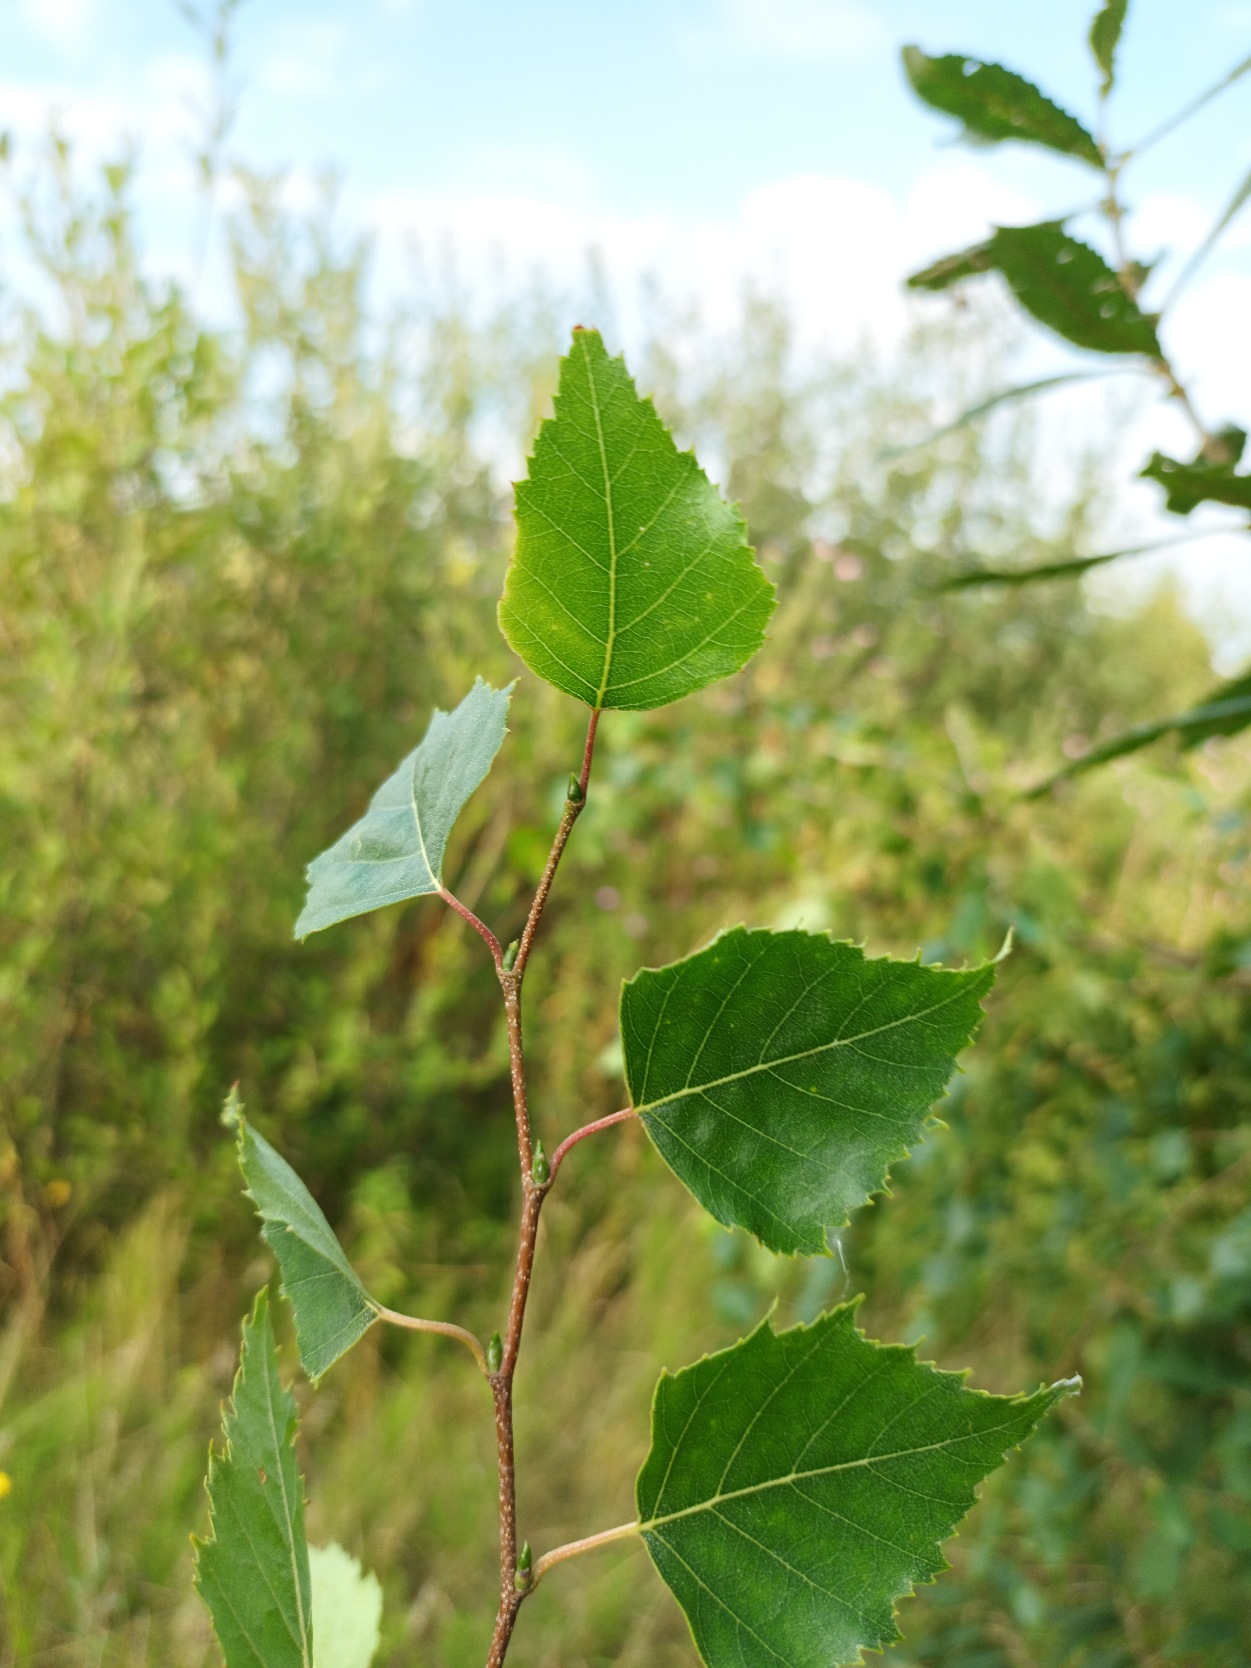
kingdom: Plantae
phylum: Tracheophyta
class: Magnoliopsida
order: Fagales
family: Betulaceae
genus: Betula
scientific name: Betula pendula
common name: Vorte-birk
